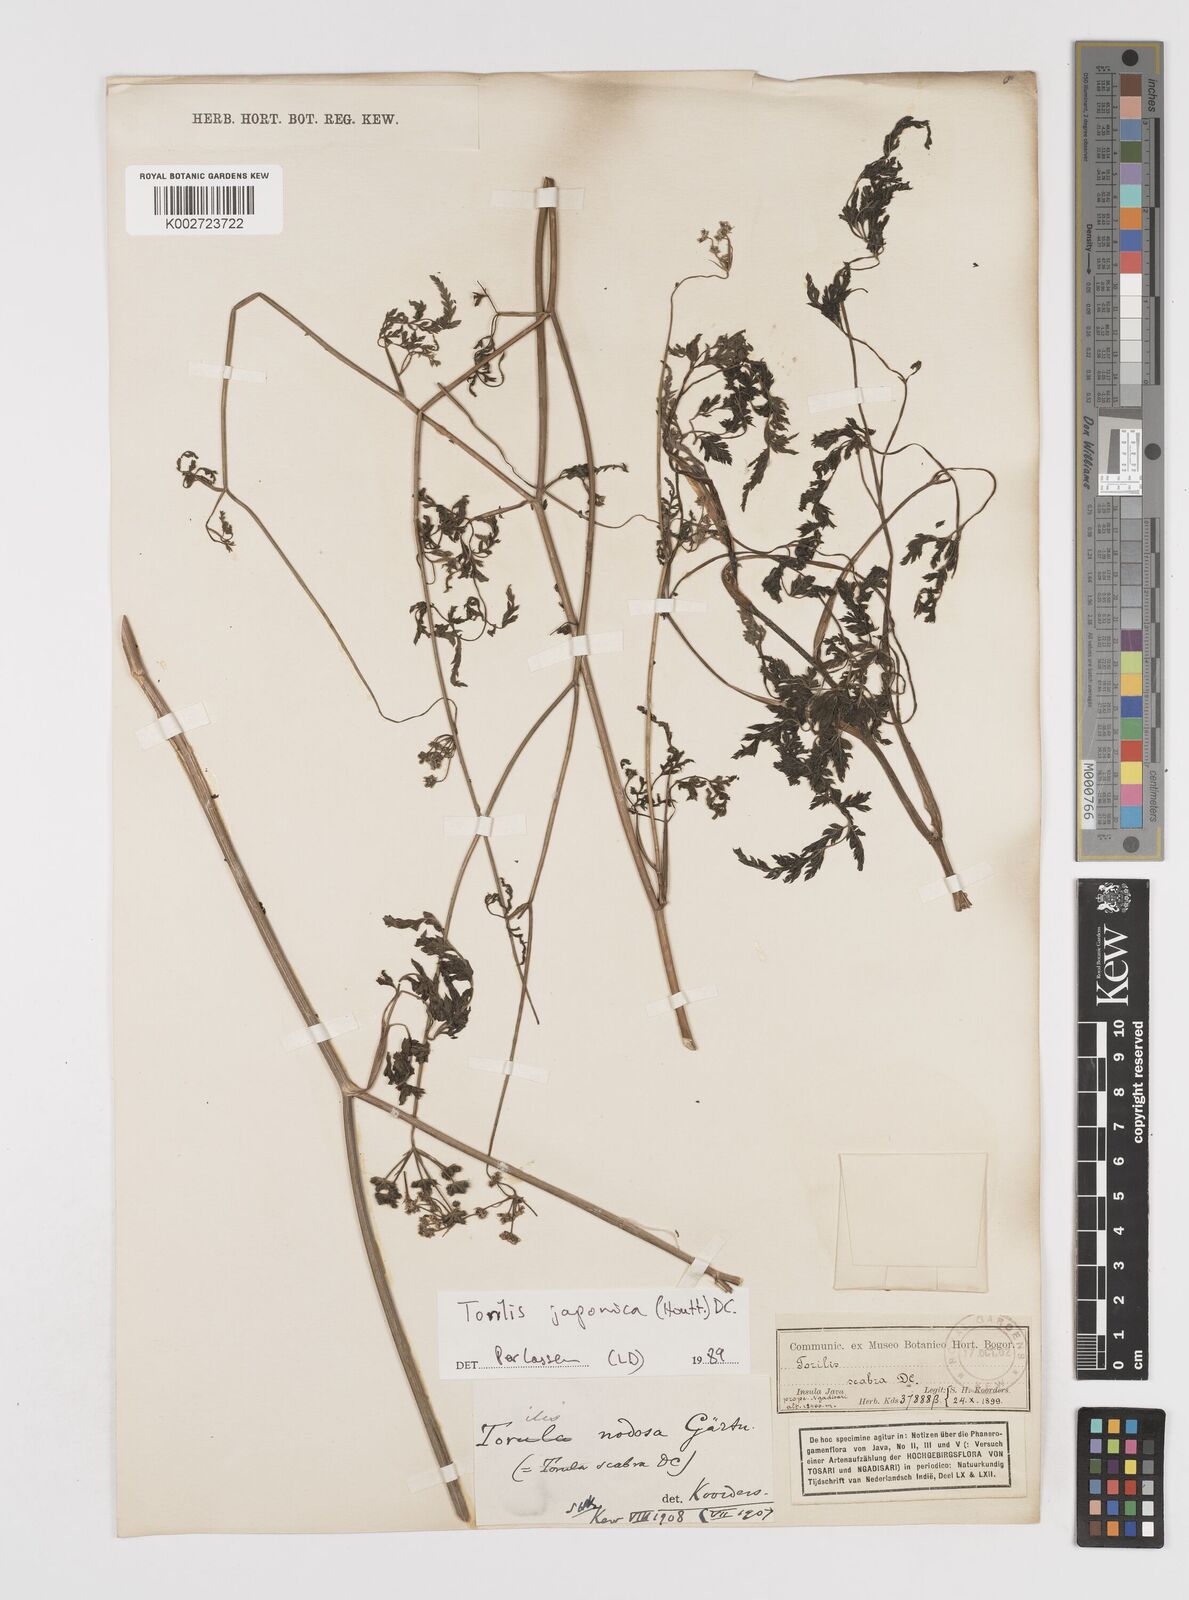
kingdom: Plantae
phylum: Tracheophyta
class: Magnoliopsida
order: Apiales
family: Apiaceae
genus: Torilis
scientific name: Torilis scabra
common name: Rough hedgeparsley
